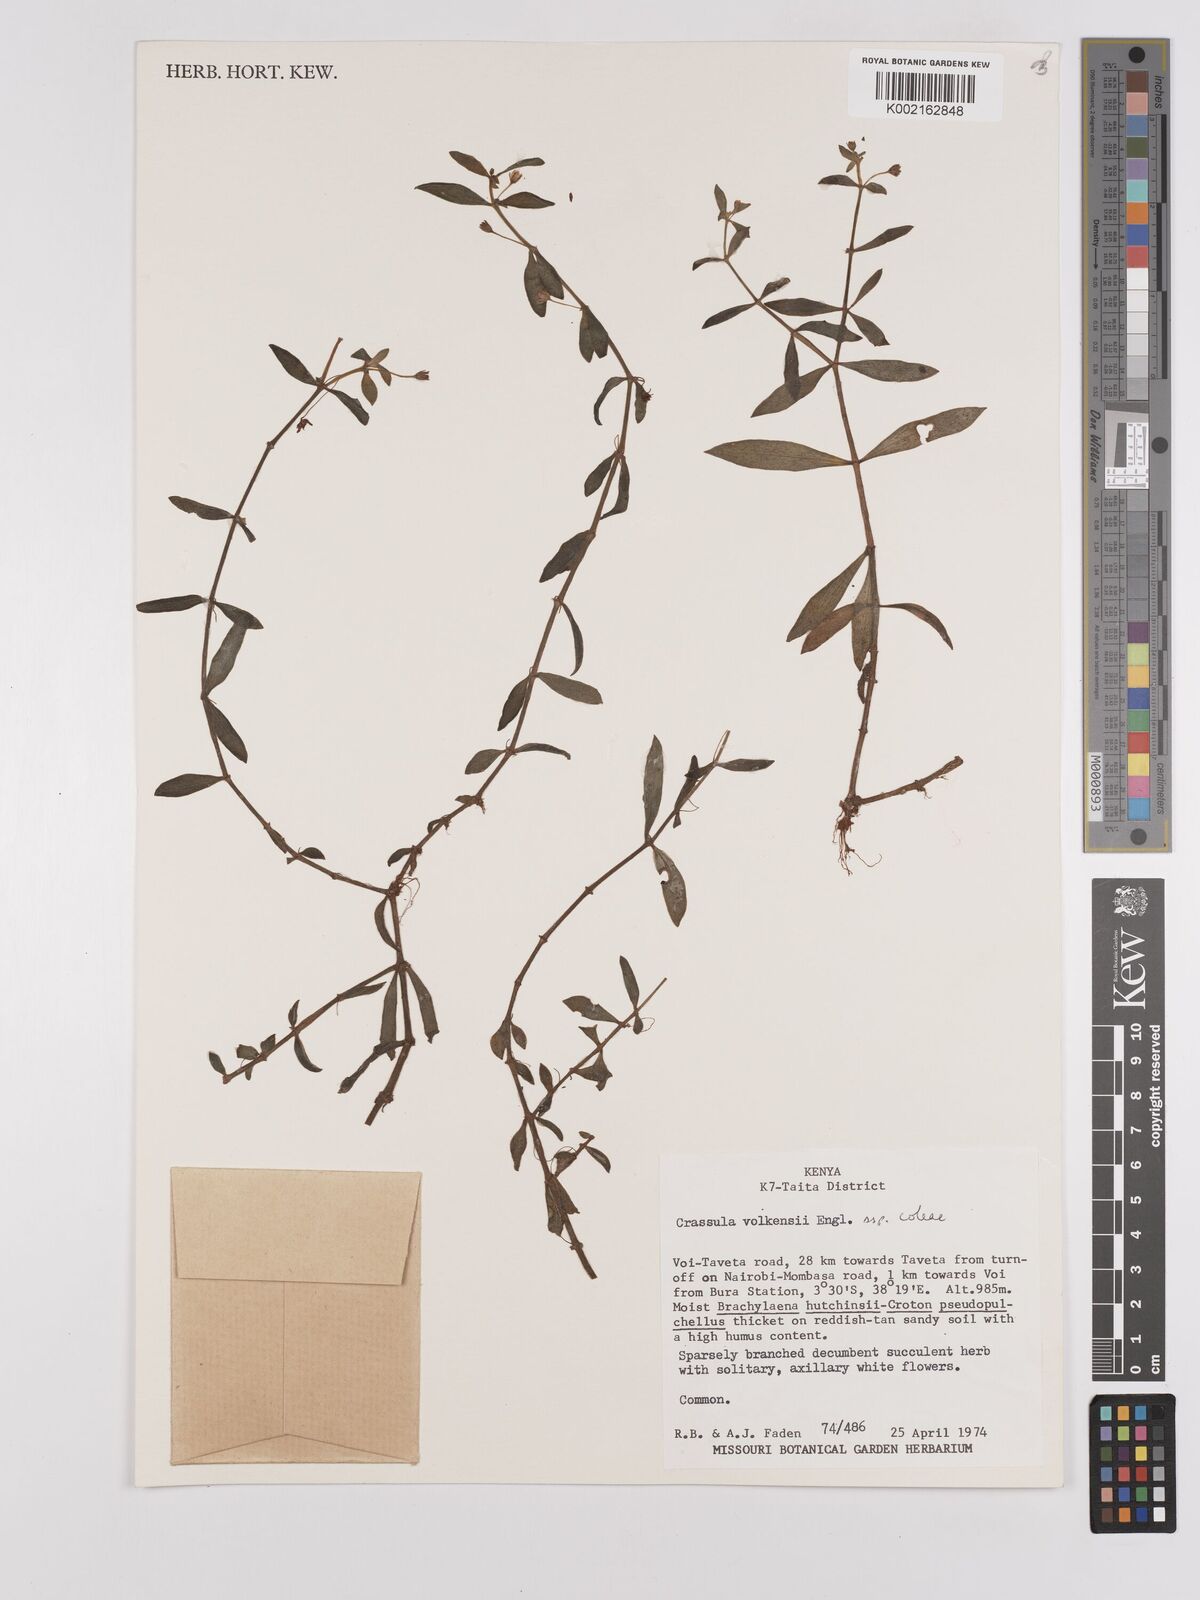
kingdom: Plantae
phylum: Tracheophyta
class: Magnoliopsida
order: Saxifragales
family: Crassulaceae
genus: Crassula
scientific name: Crassula volkensii
